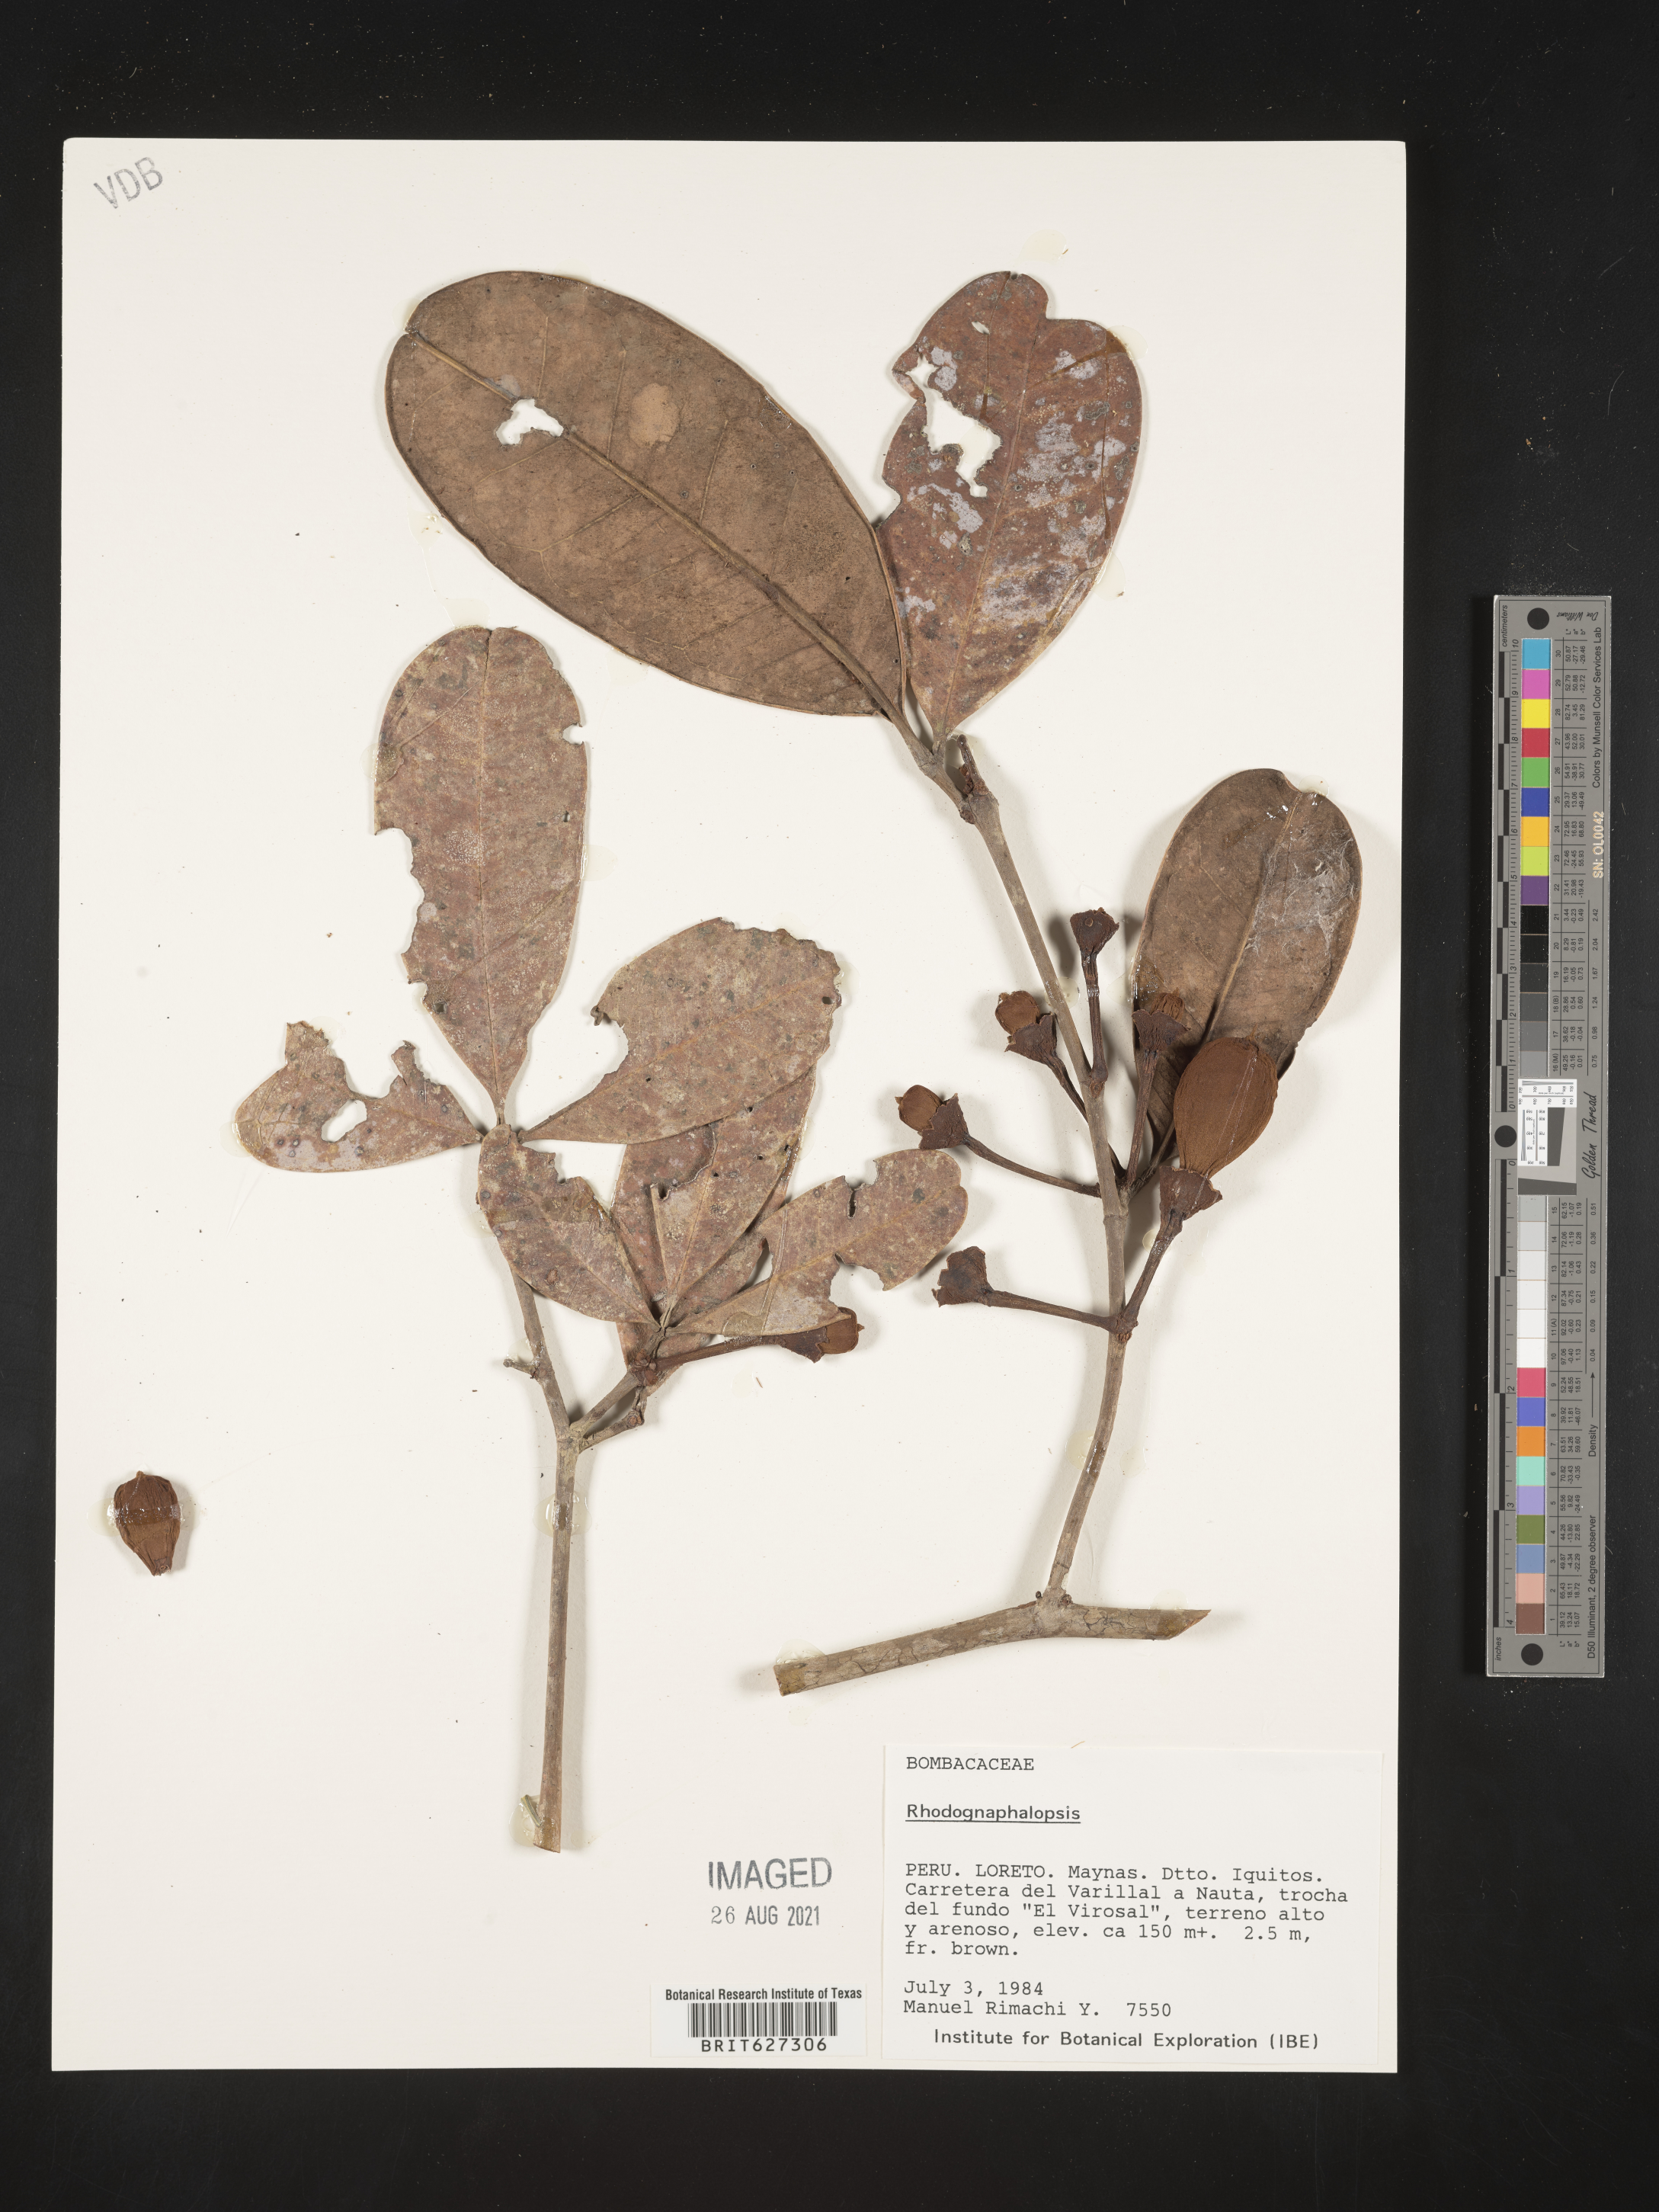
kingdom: Plantae
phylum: Tracheophyta
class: Magnoliopsida
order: Malvales
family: Malvaceae
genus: Pachira
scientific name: Pachira
